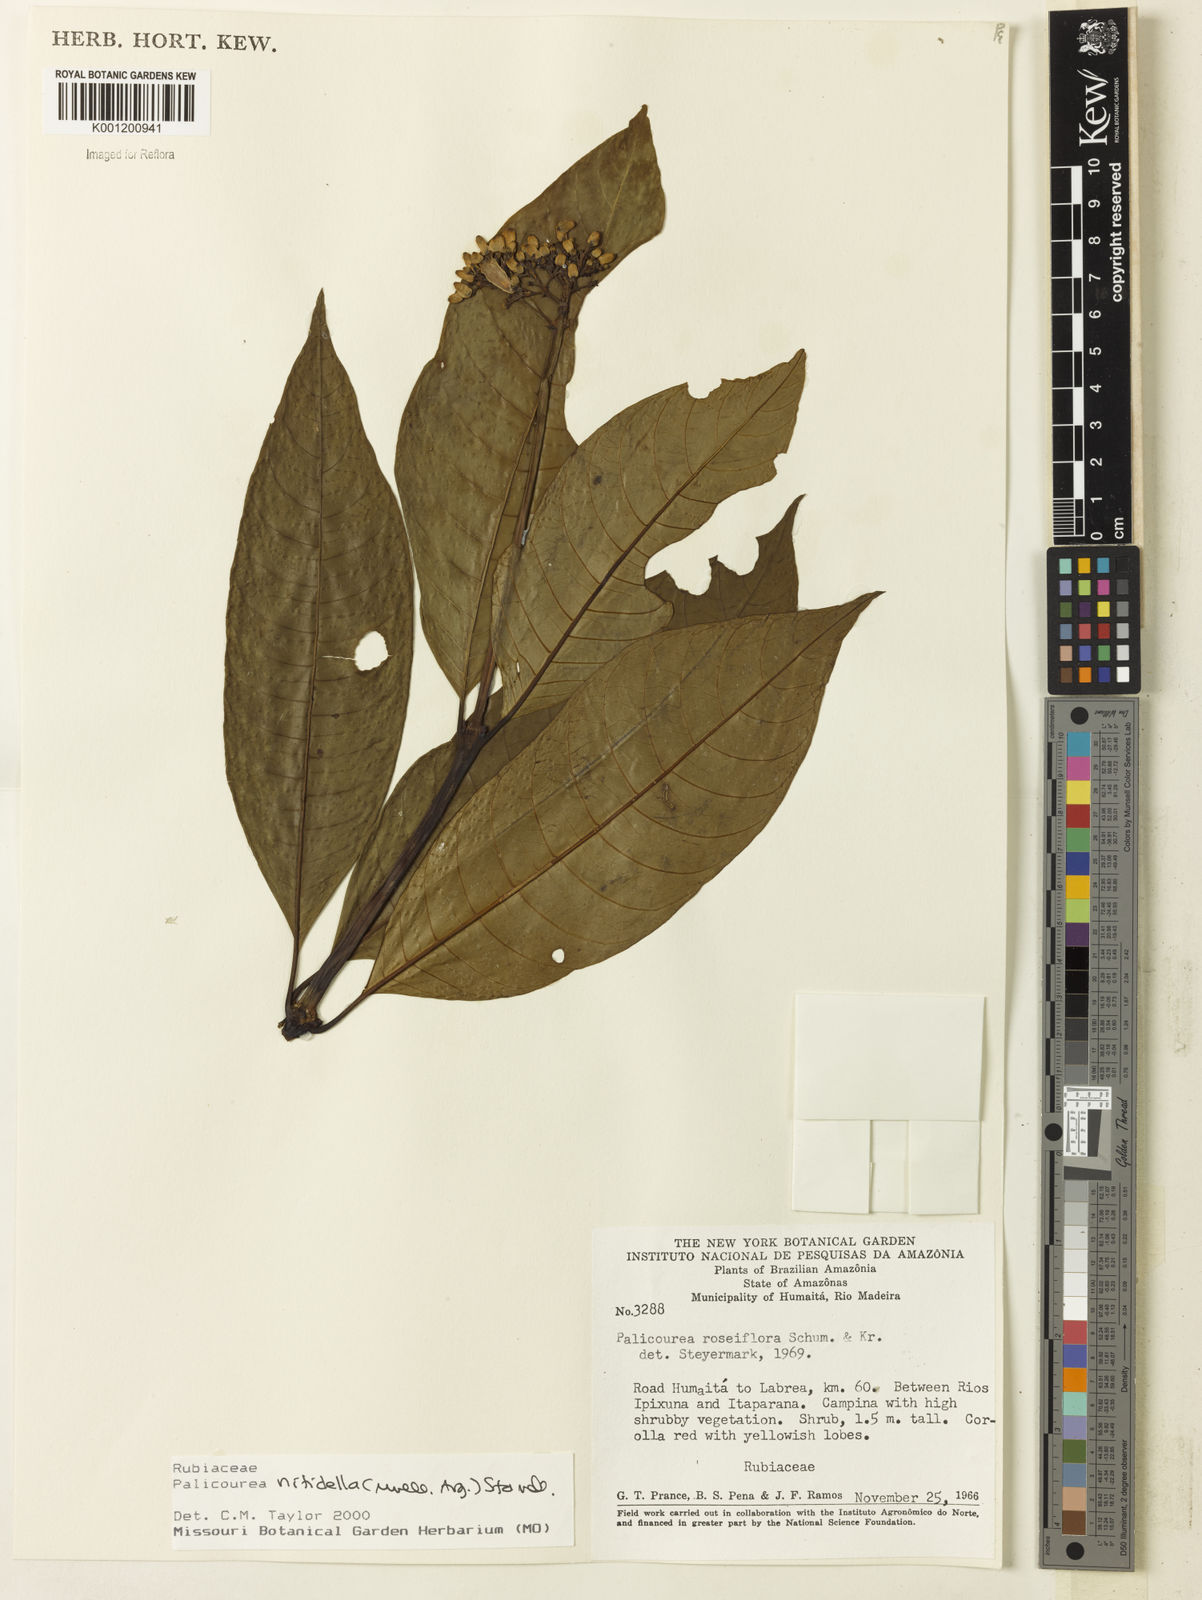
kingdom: Plantae
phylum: Tracheophyta
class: Magnoliopsida
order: Gentianales
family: Rubiaceae
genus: Palicourea
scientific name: Palicourea
